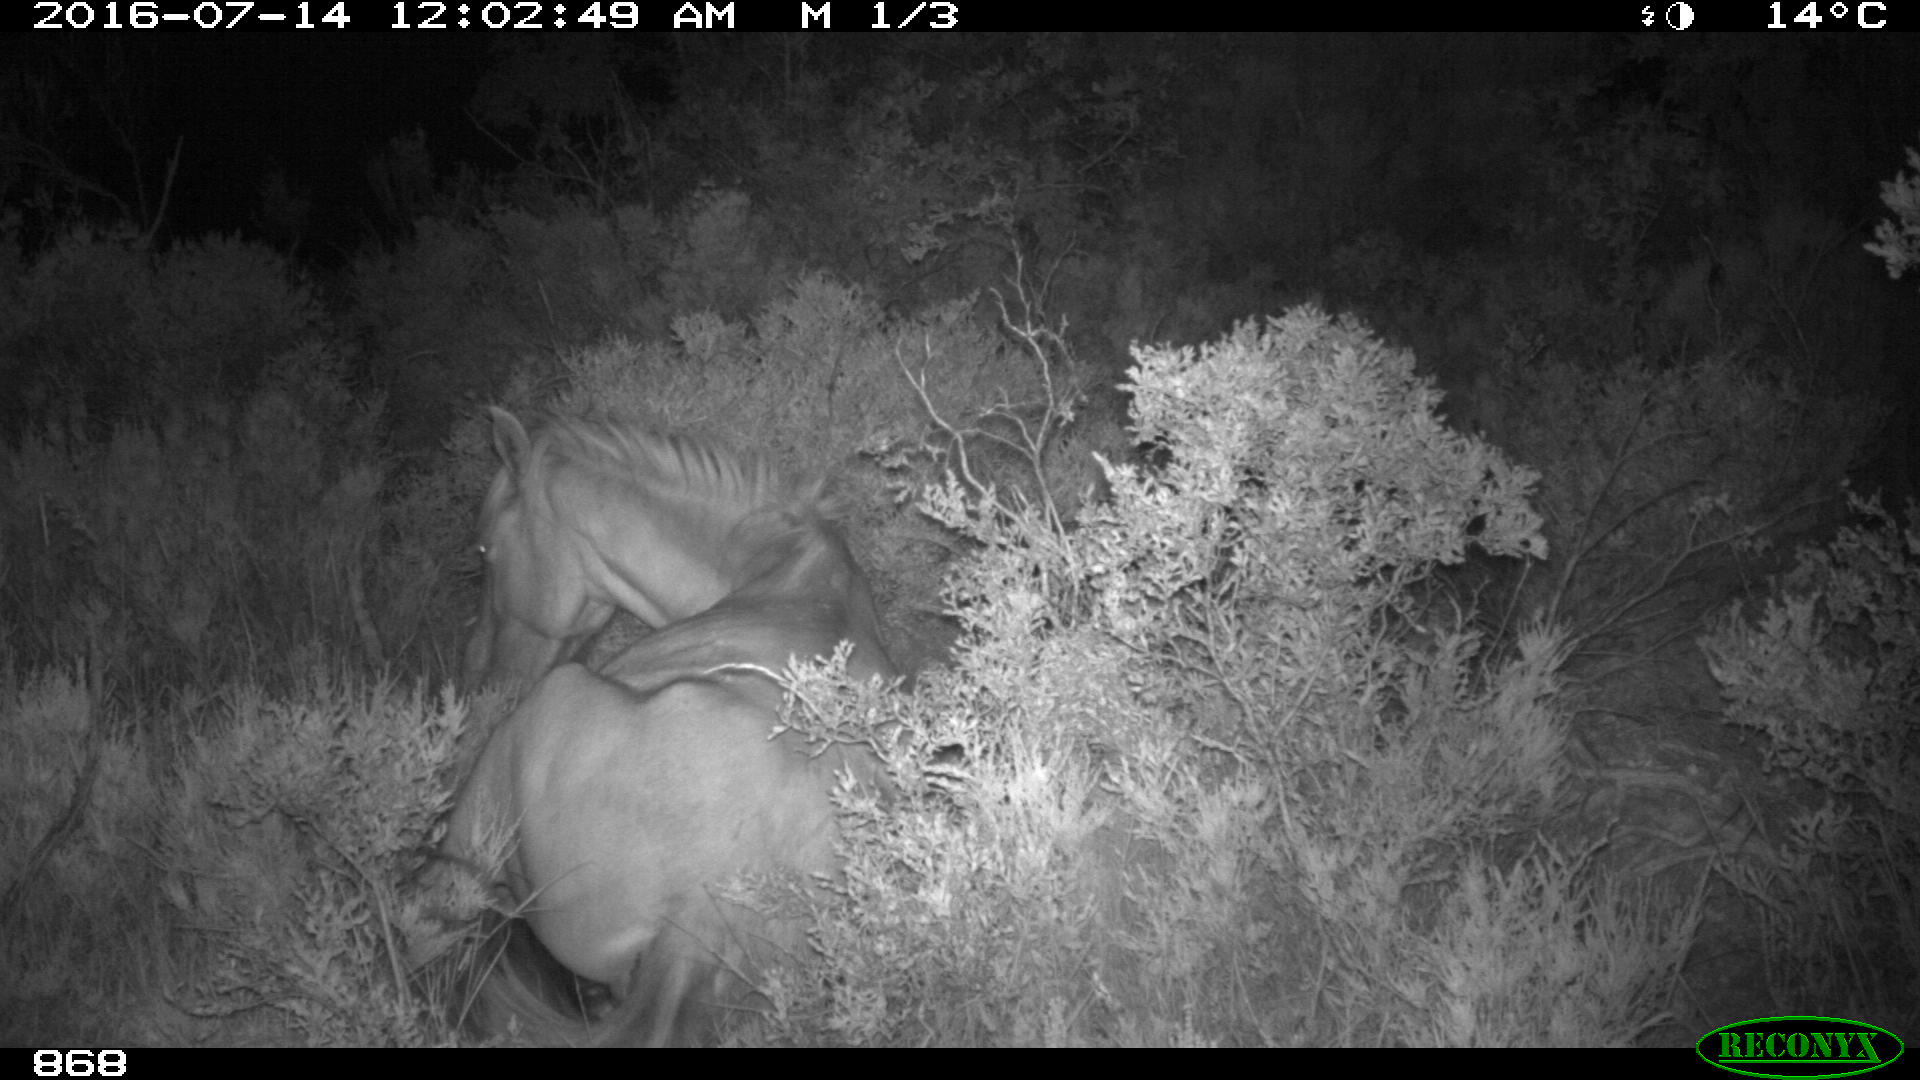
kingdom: Animalia
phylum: Chordata
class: Mammalia
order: Perissodactyla
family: Equidae
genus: Equus
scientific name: Equus caballus
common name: Horse
